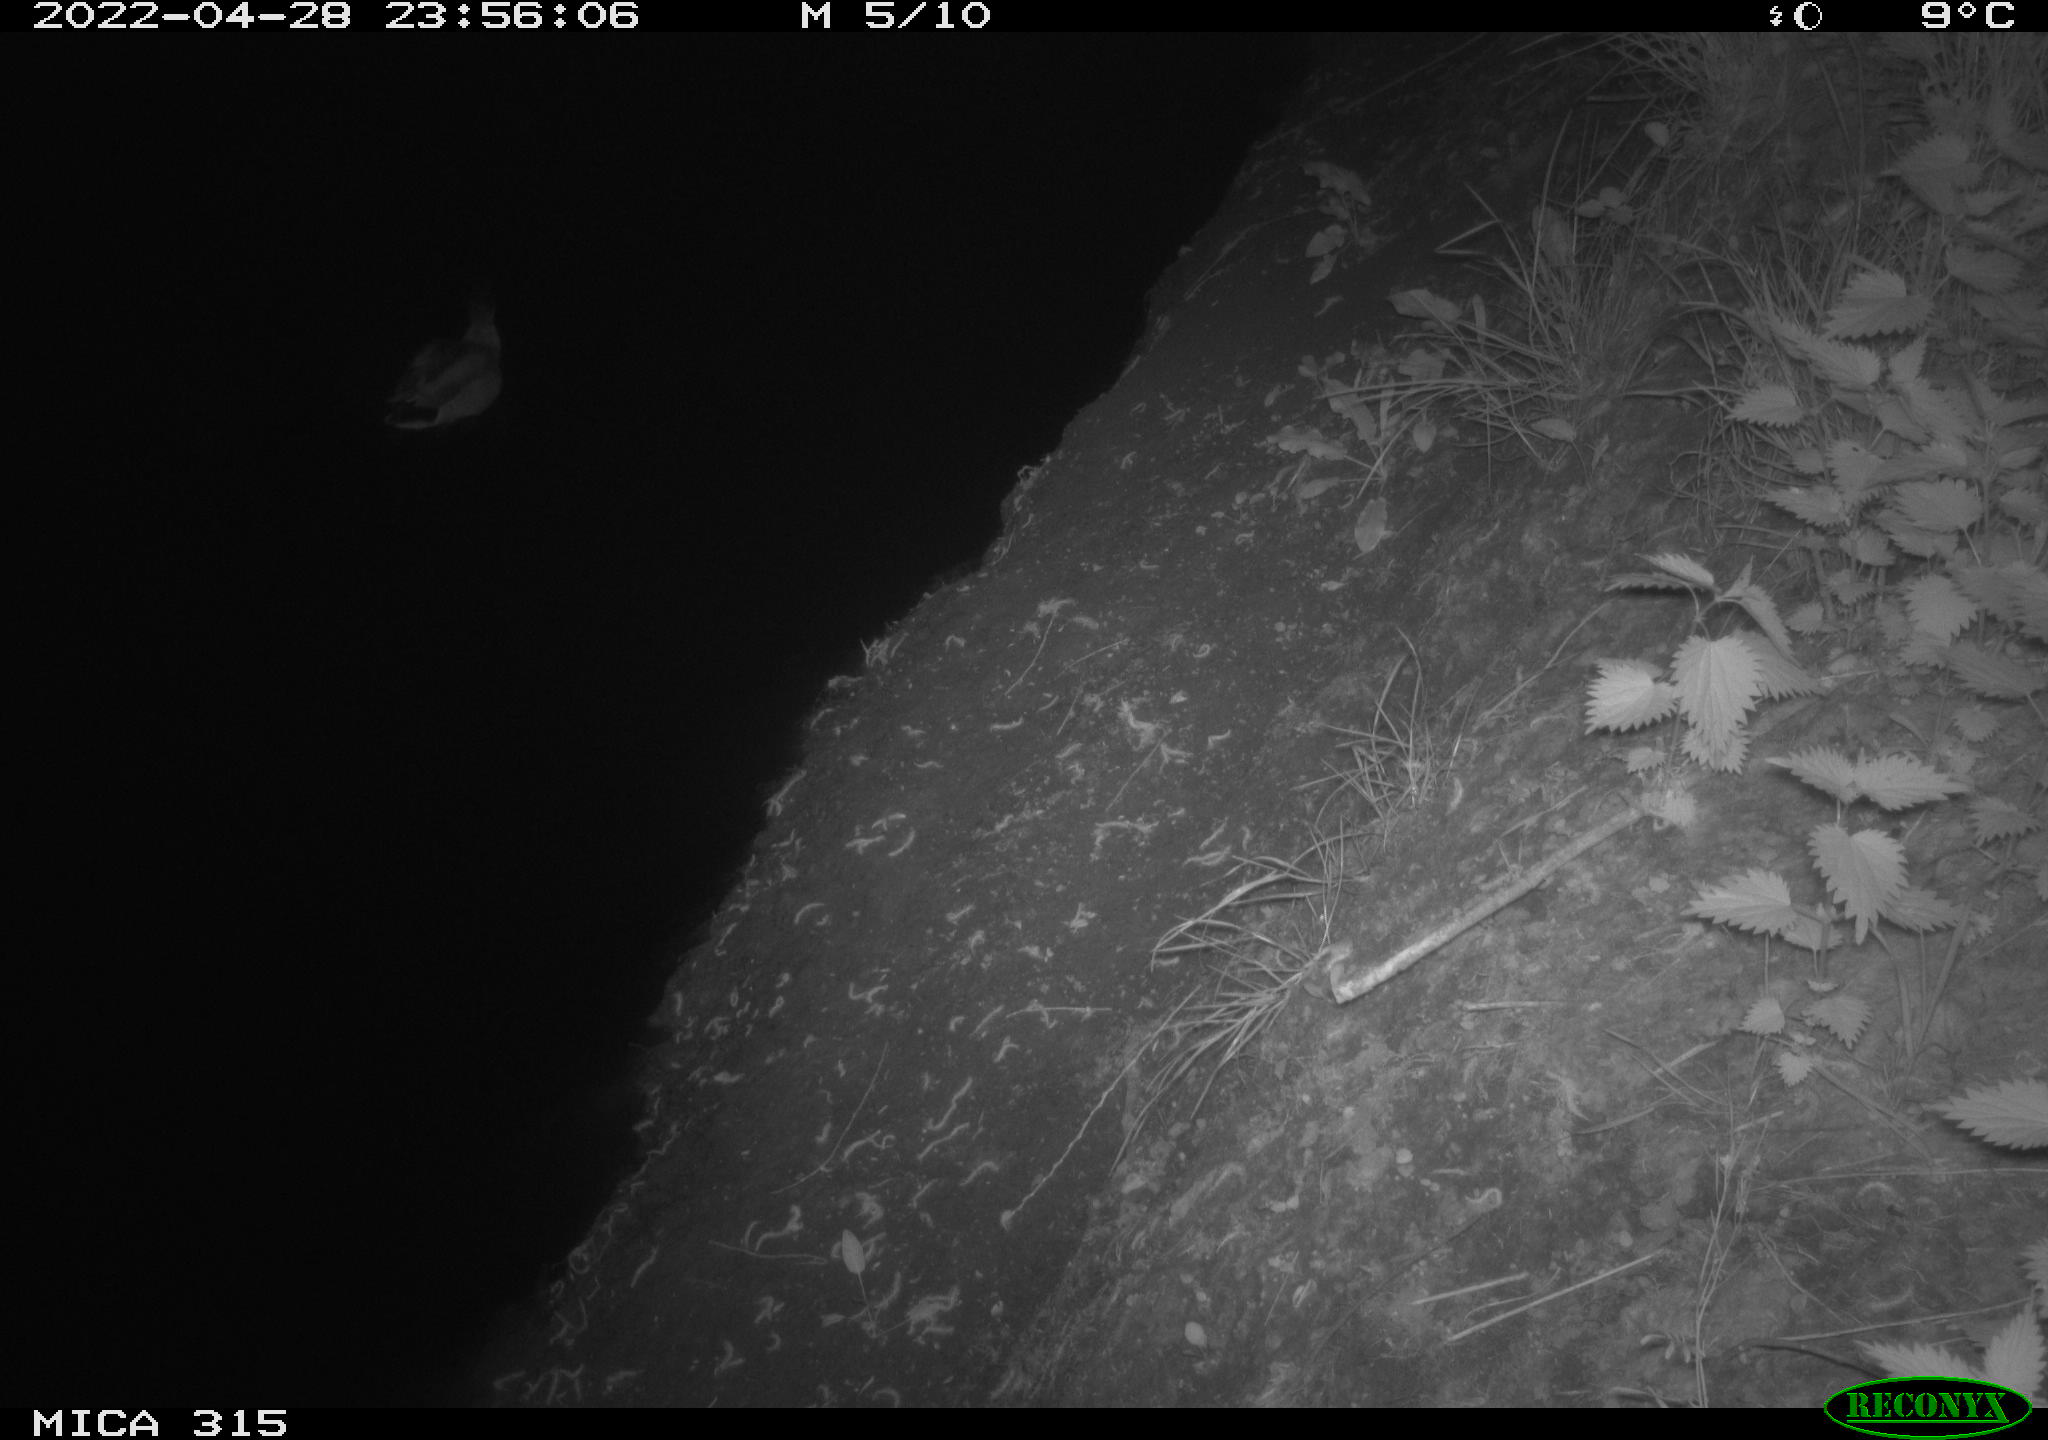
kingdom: Animalia
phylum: Chordata
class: Aves
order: Anseriformes
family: Anatidae
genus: Anas
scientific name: Anas platyrhynchos
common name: Mallard
